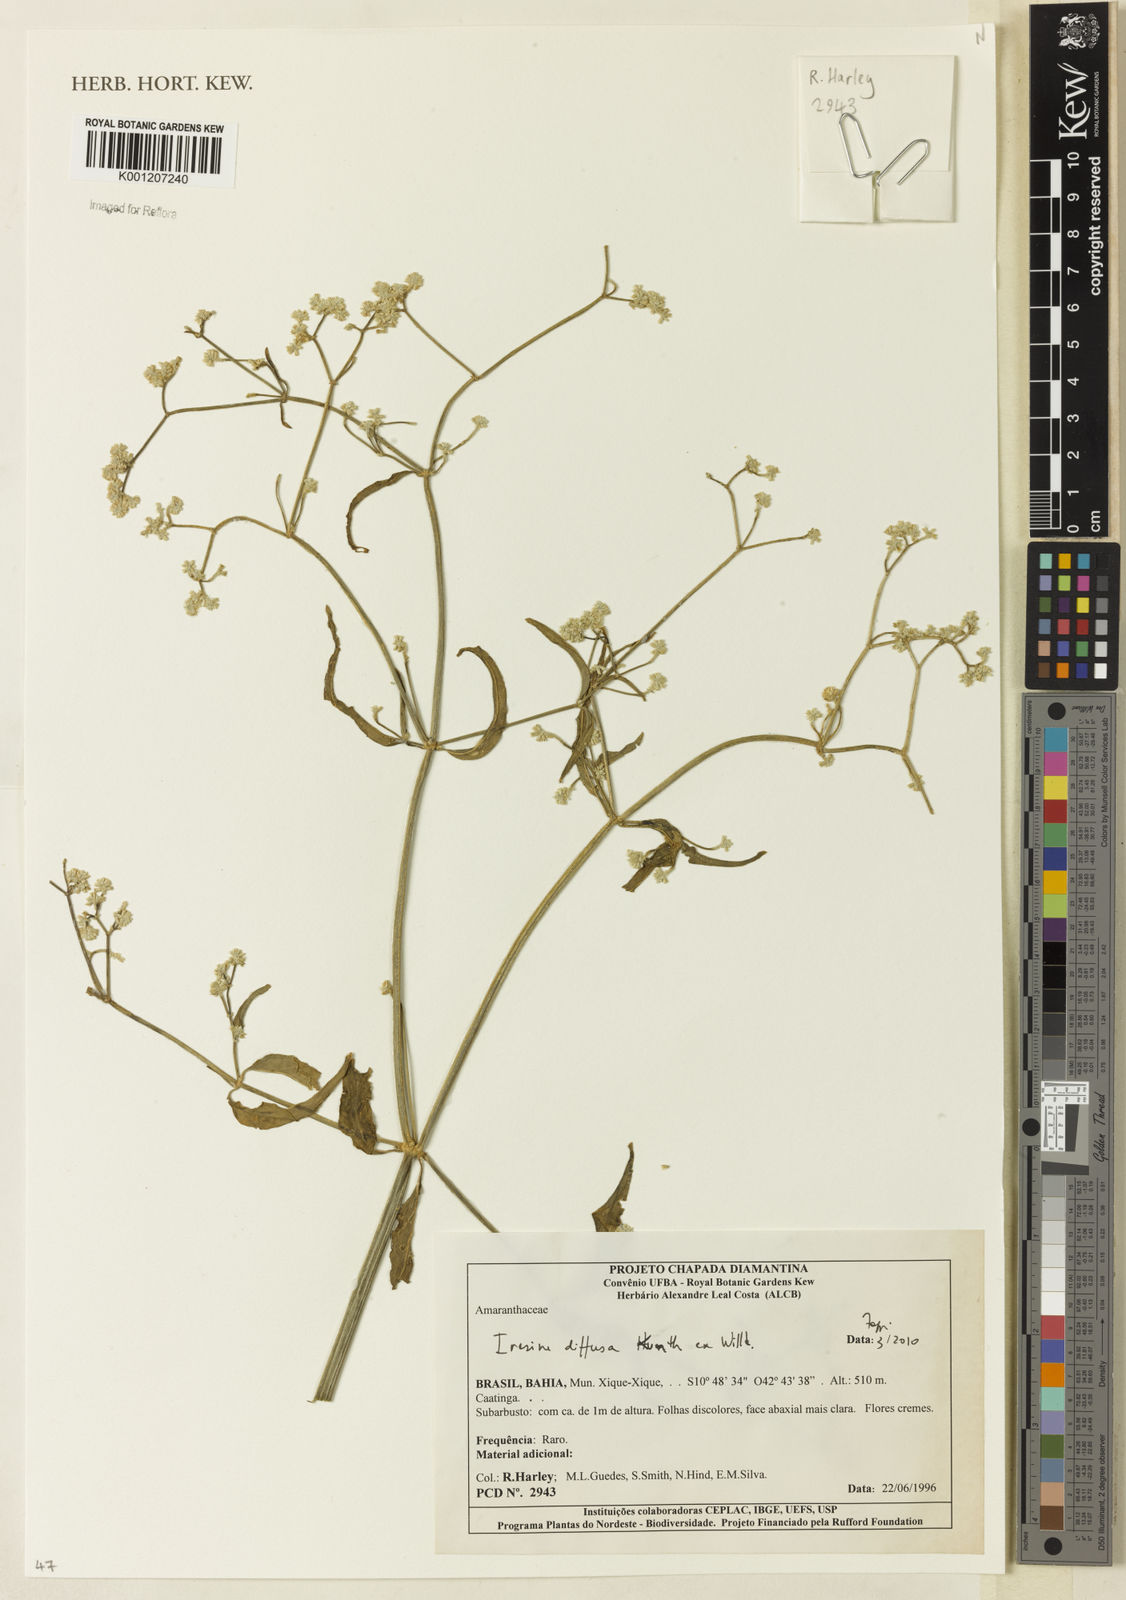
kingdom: Plantae
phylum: Tracheophyta
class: Magnoliopsida
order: Caryophyllales
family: Amaranthaceae
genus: Iresine
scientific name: Iresine rhizomatosa
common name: Juda's-bush
